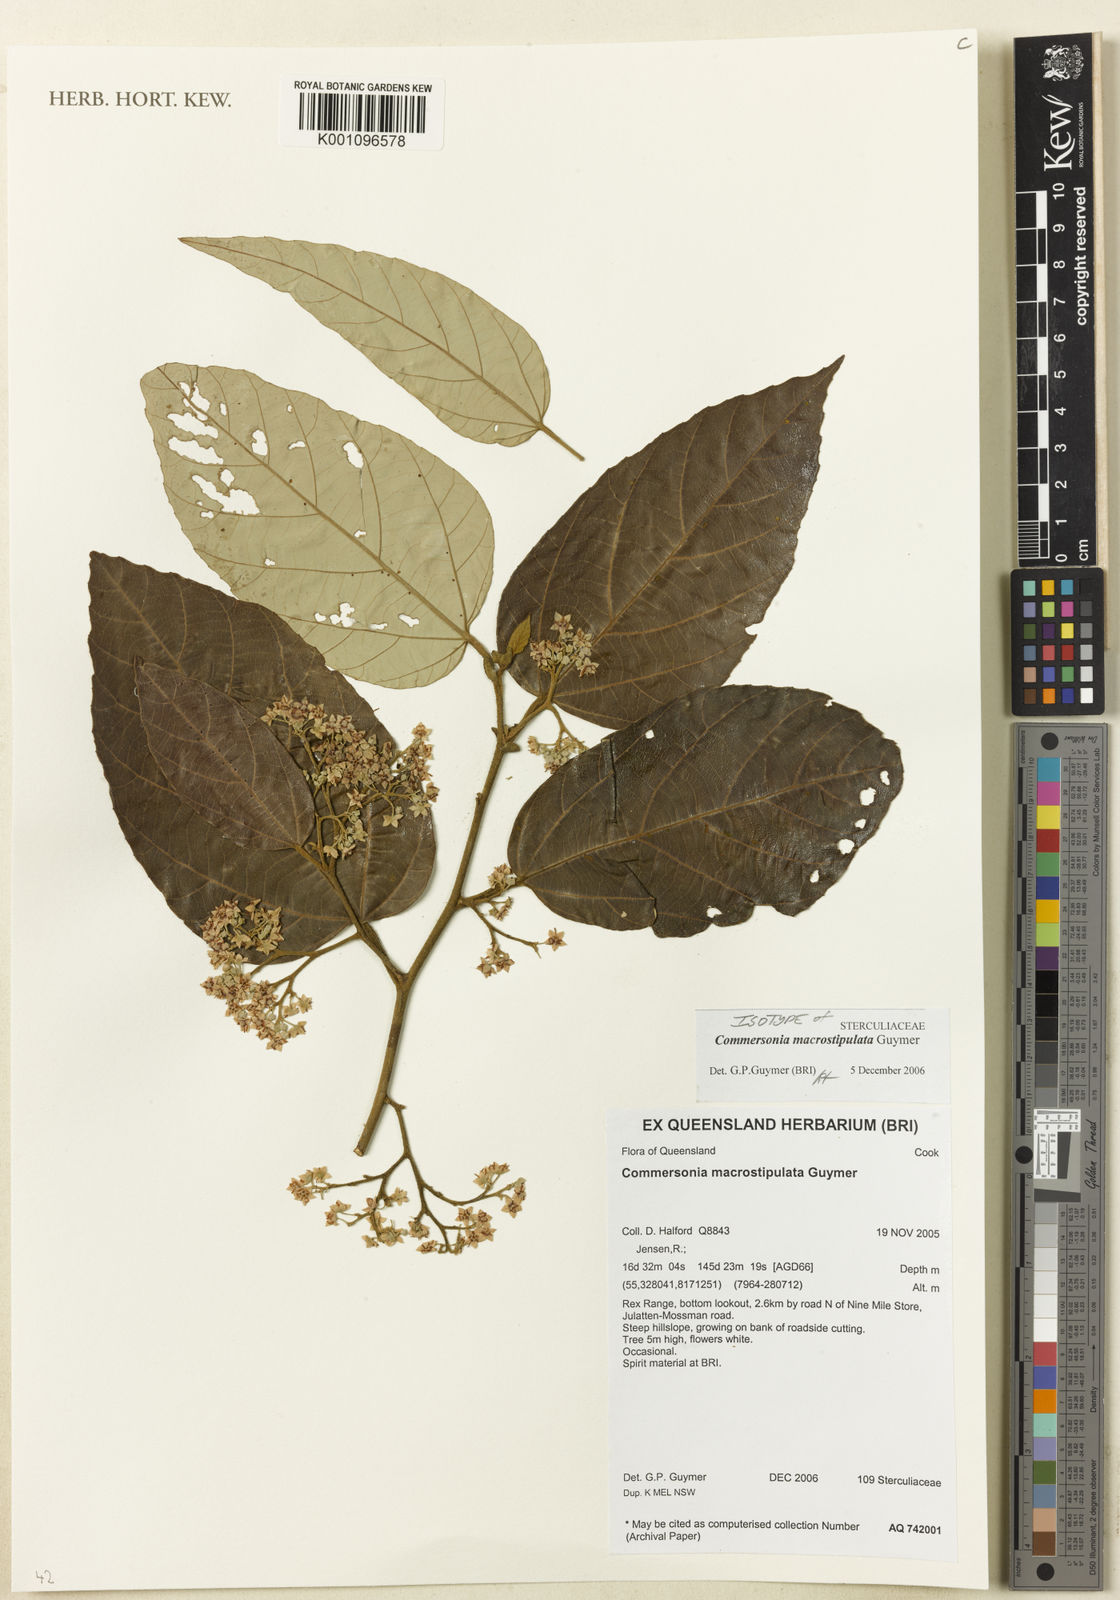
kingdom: Plantae
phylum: Tracheophyta
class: Magnoliopsida
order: Malvales
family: Malvaceae
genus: Commersonia
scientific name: Commersonia macrostipulata
